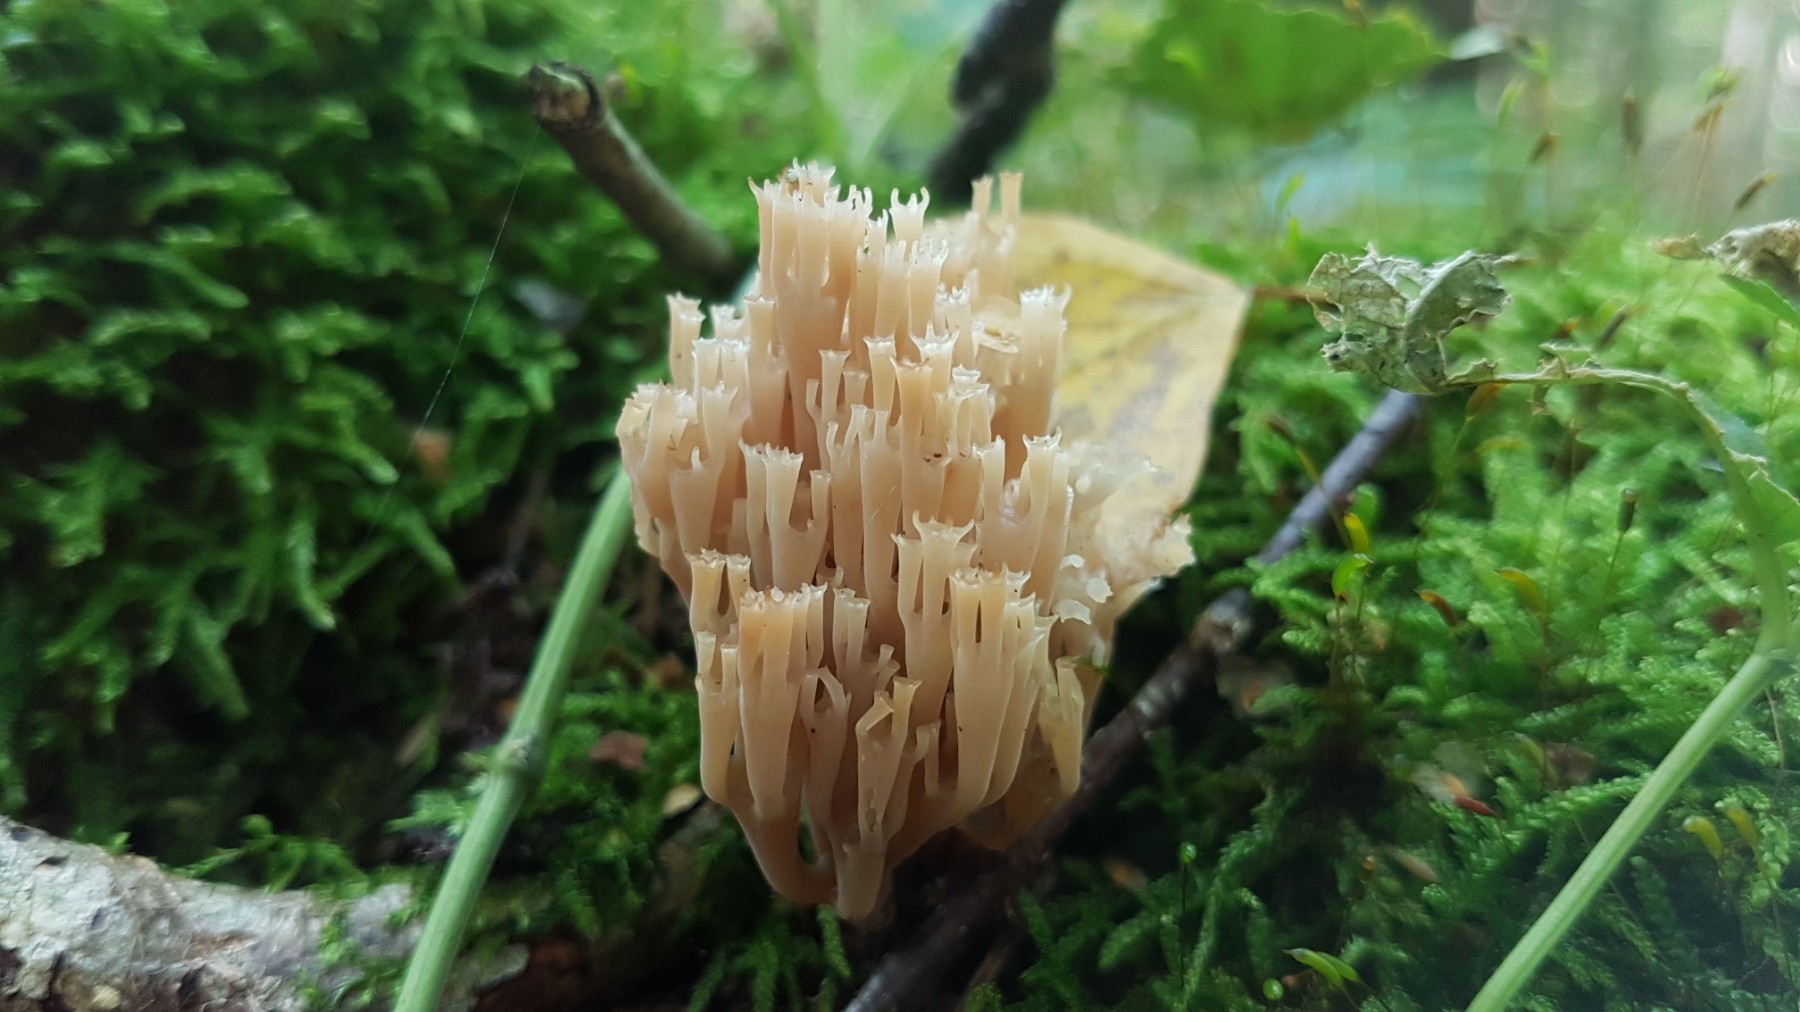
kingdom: Fungi
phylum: Basidiomycota
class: Agaricomycetes
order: Russulales
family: Auriscalpiaceae
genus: Artomyces
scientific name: Artomyces pyxidatus
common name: kandelabersvamp
